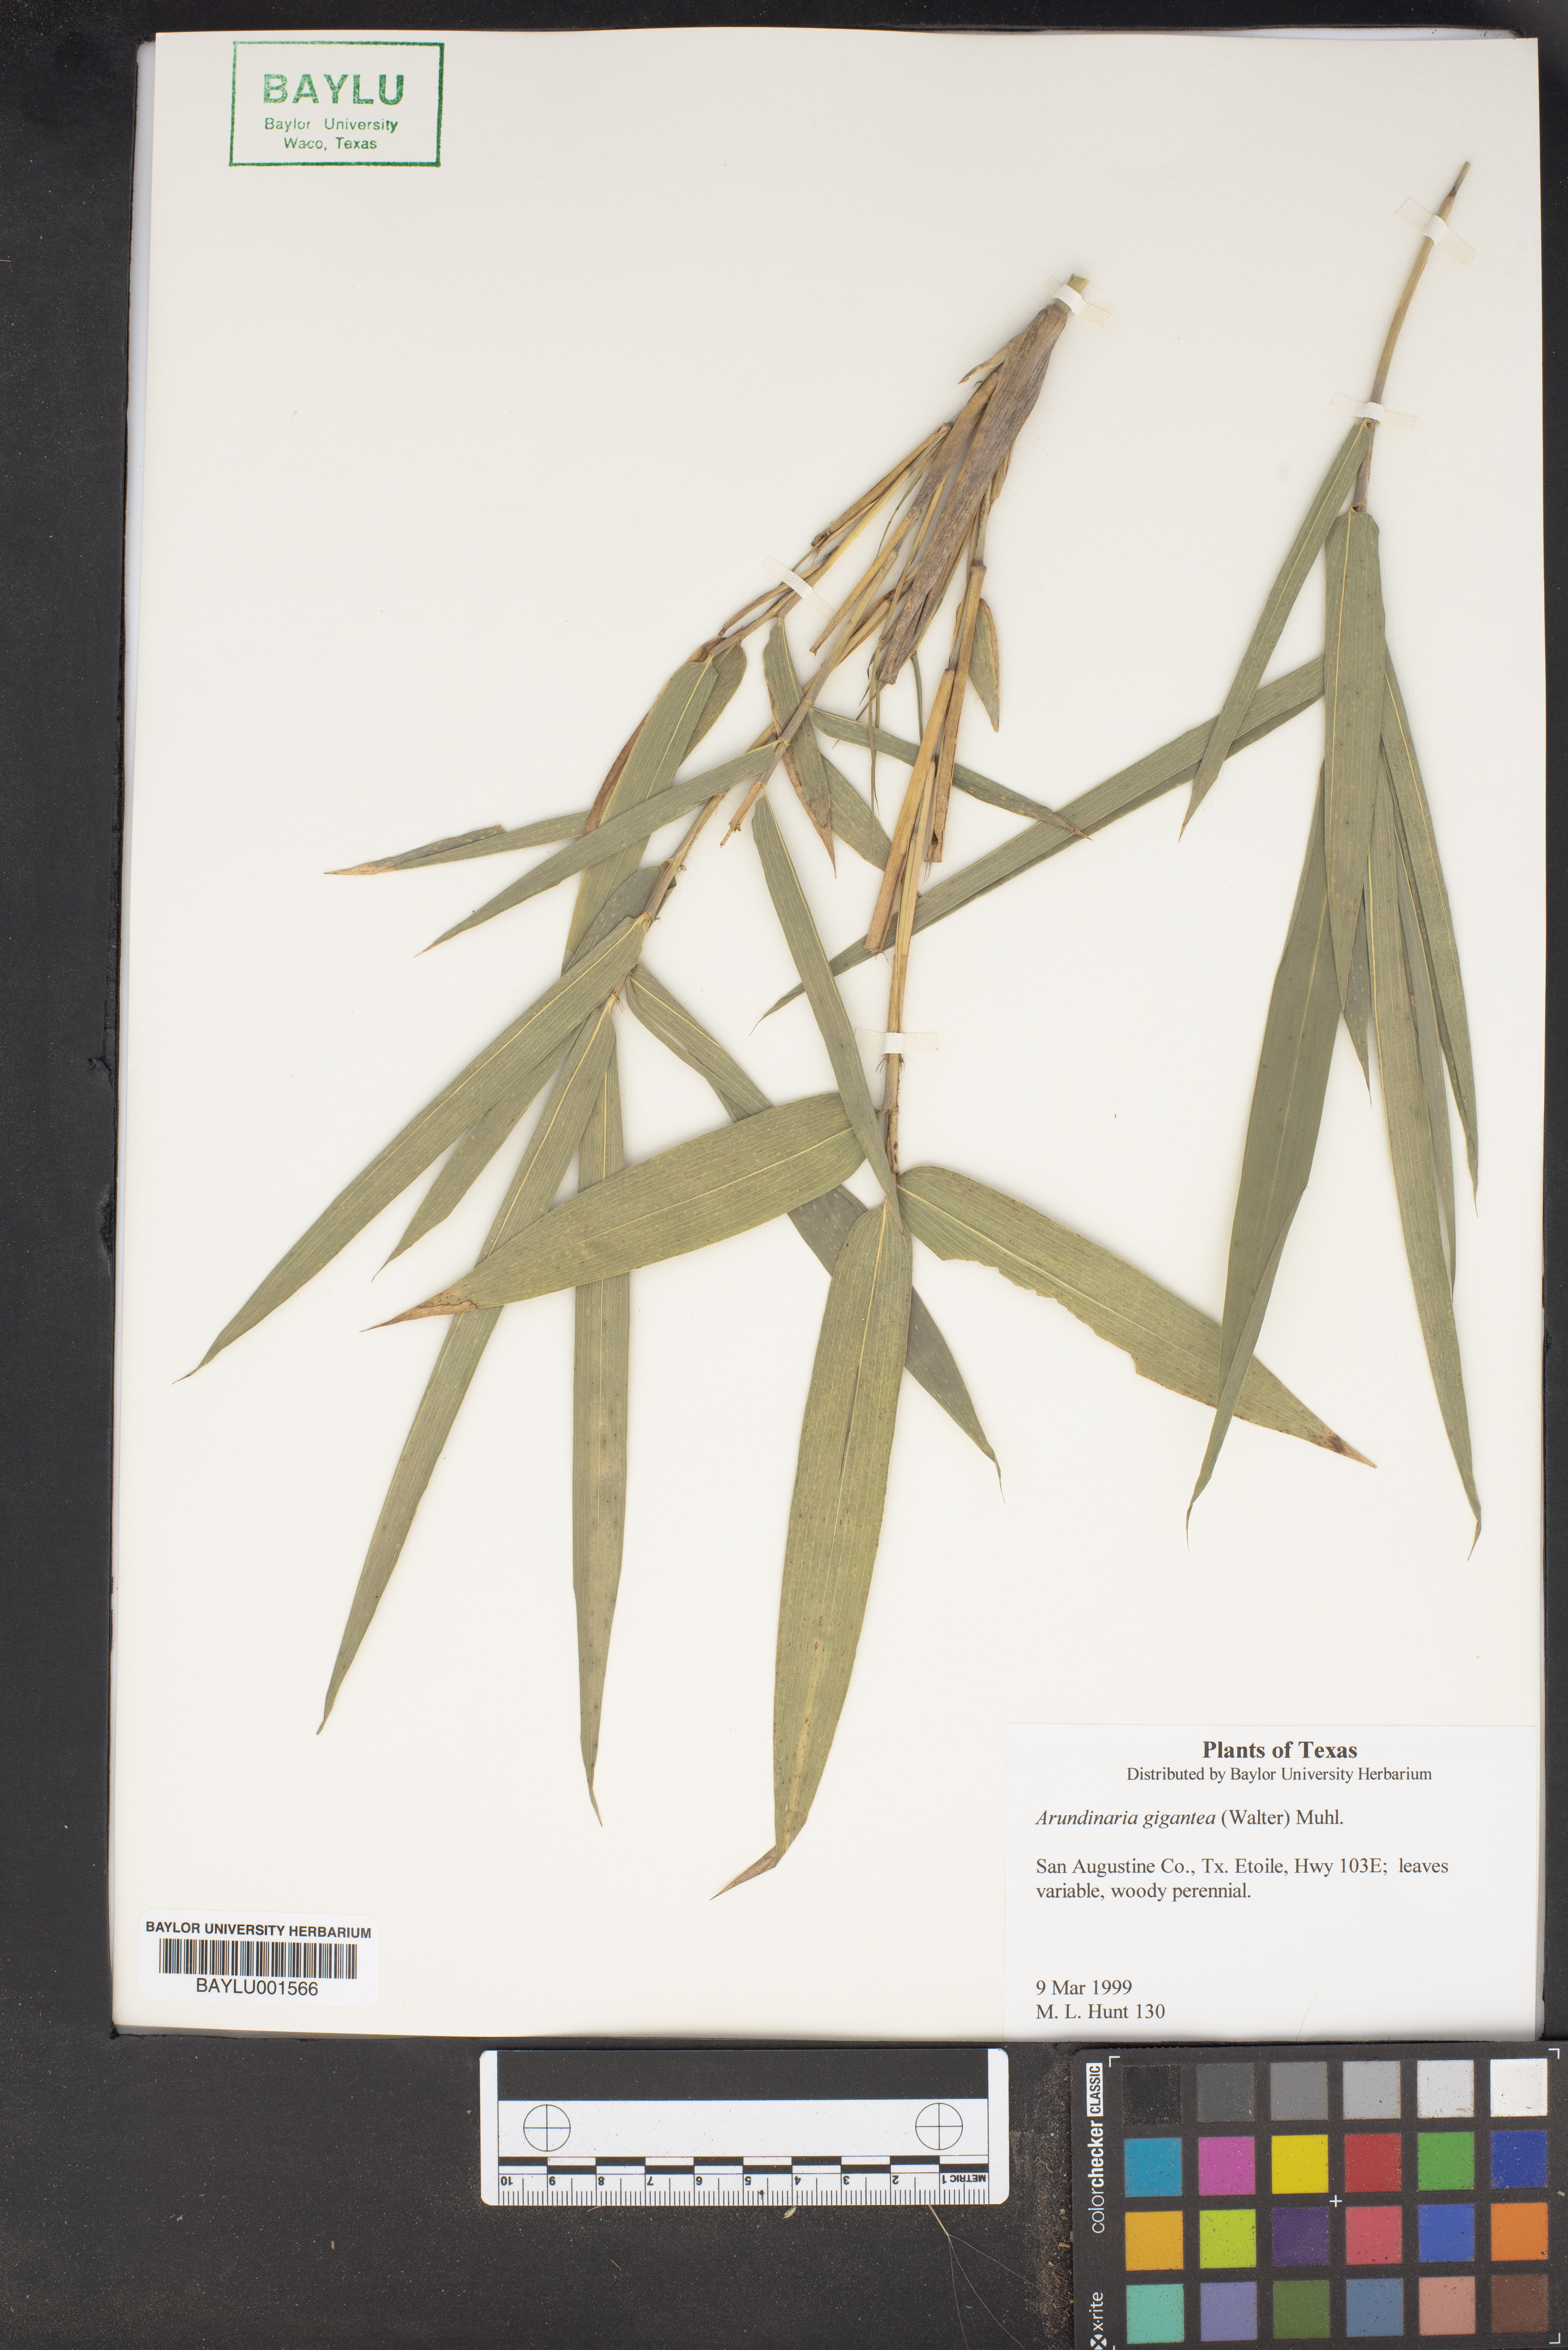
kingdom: Plantae
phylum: Tracheophyta
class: Liliopsida
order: Poales
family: Poaceae
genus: Arundinaria
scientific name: Arundinaria gigantea
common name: Giant cane
